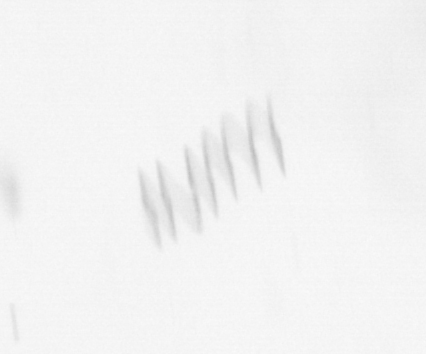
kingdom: Chromista
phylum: Ochrophyta
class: Bacillariophyceae
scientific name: Bacillariophyceae
